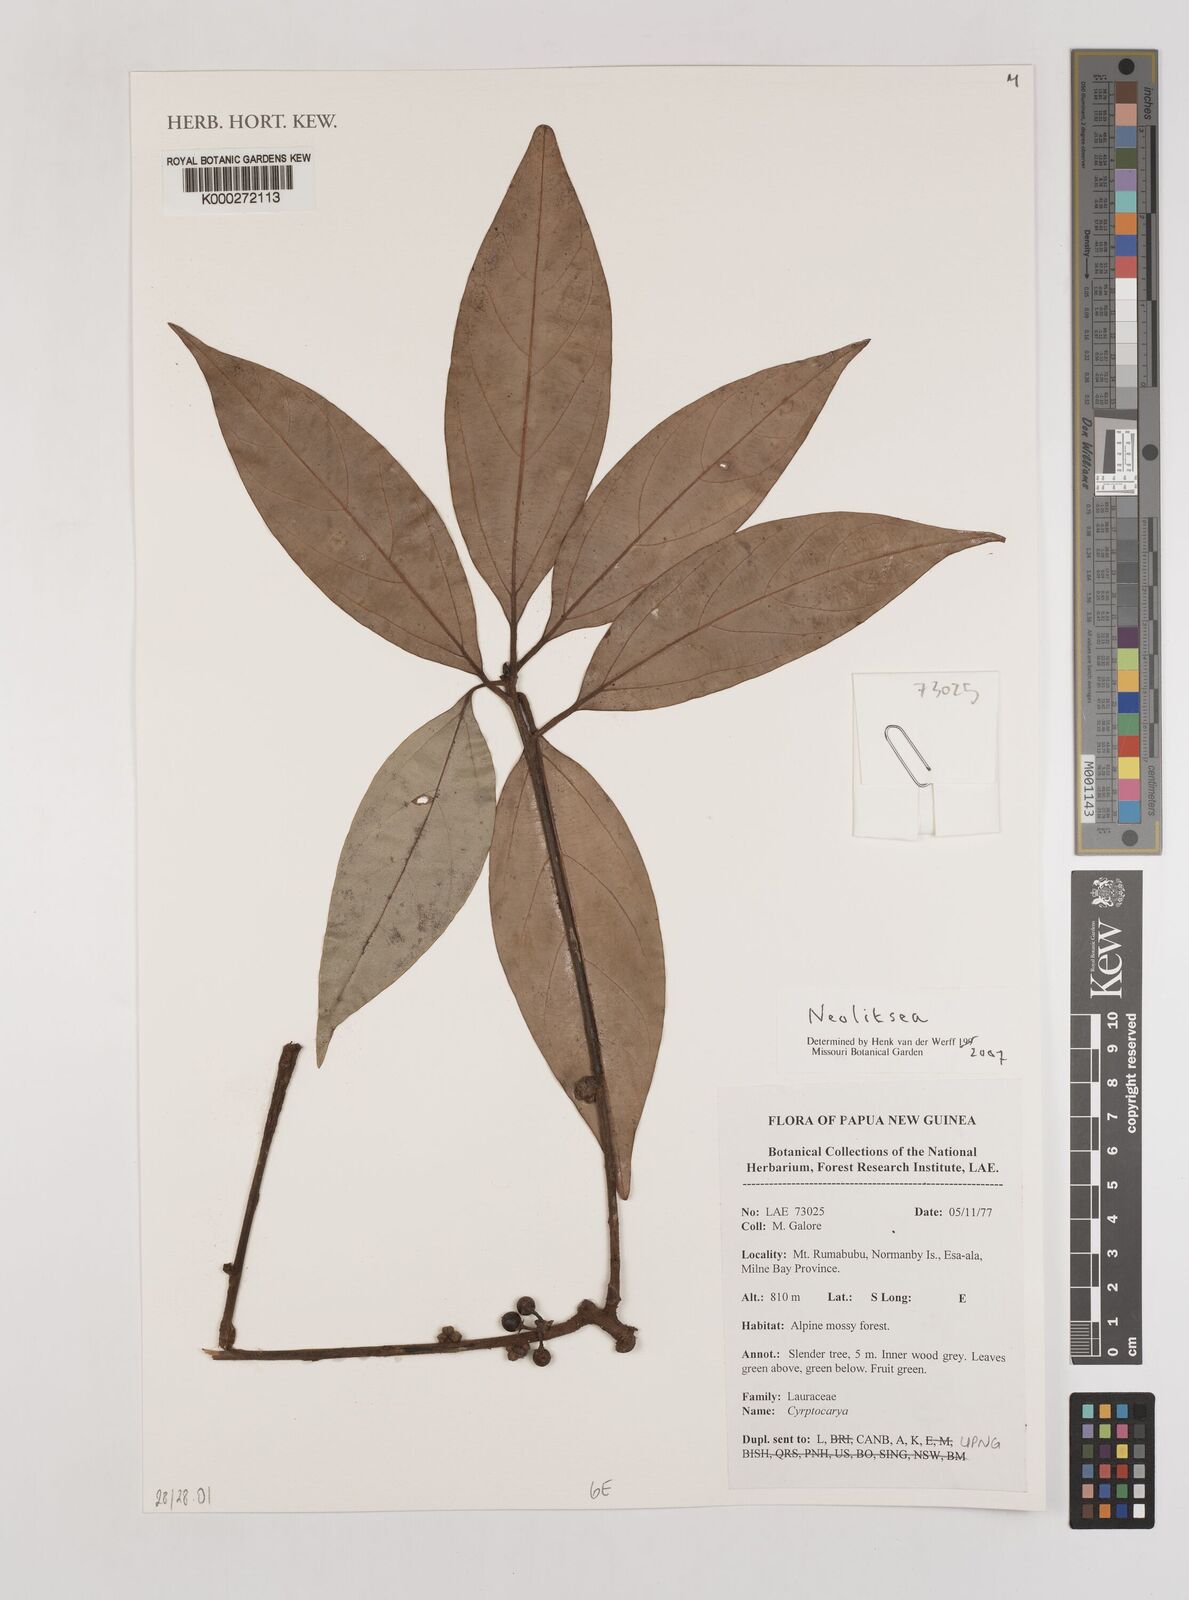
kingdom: Plantae
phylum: Tracheophyta
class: Magnoliopsida
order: Laurales
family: Lauraceae
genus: Neolitsea
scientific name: Neolitsea
